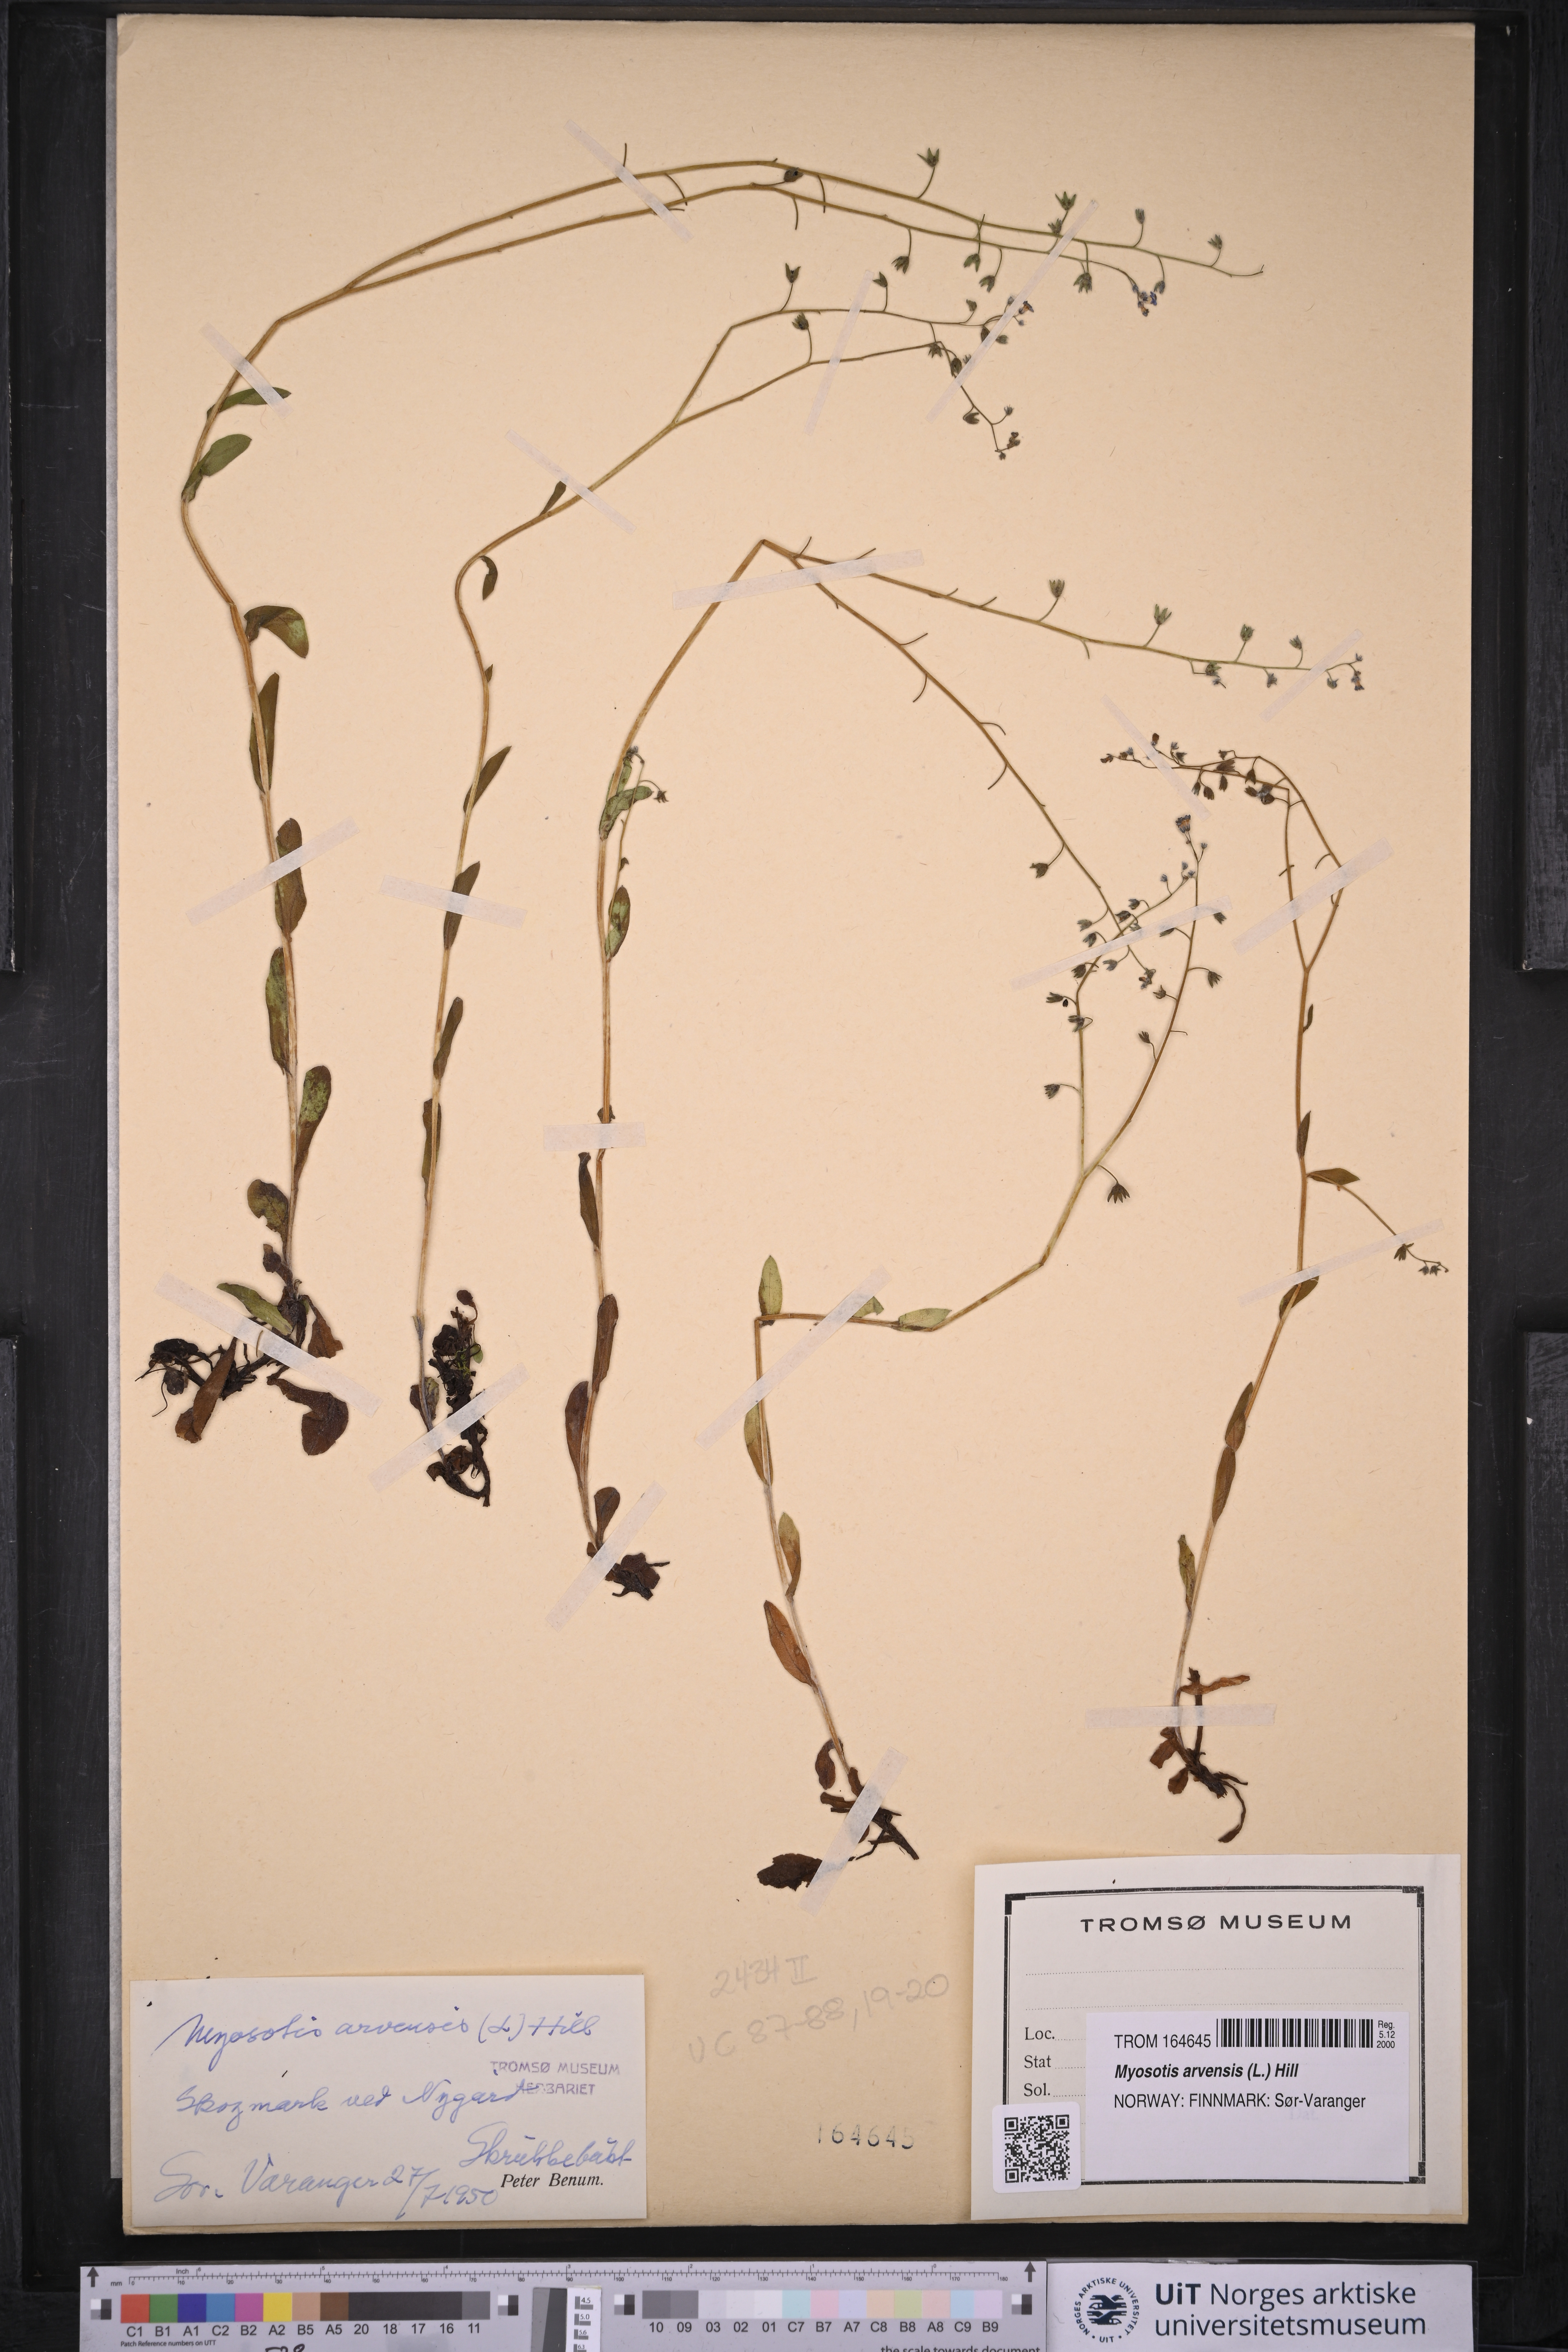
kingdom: Plantae
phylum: Tracheophyta
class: Magnoliopsida
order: Boraginales
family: Boraginaceae
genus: Myosotis
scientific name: Myosotis arvensis
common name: Field forget-me-not
